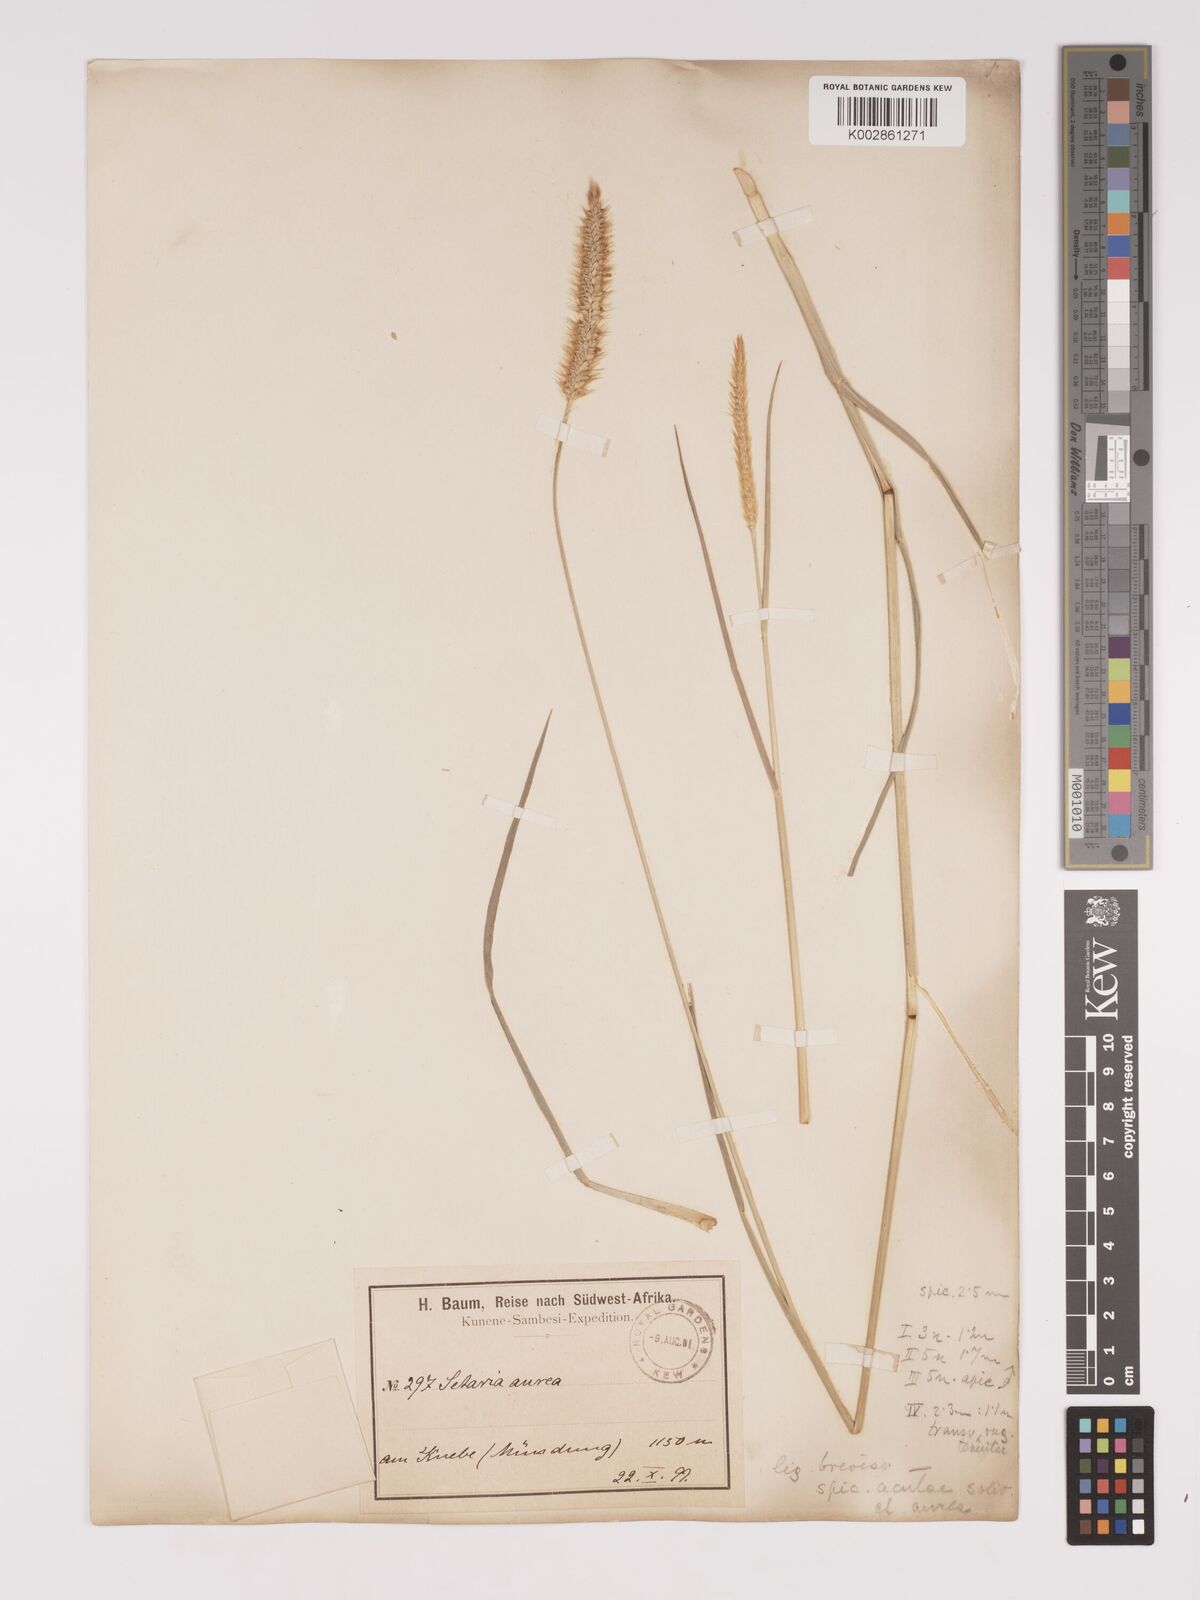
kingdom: Plantae
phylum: Tracheophyta
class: Liliopsida
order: Poales
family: Poaceae
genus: Setaria
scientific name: Setaria sphacelata
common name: African bristlegrass
